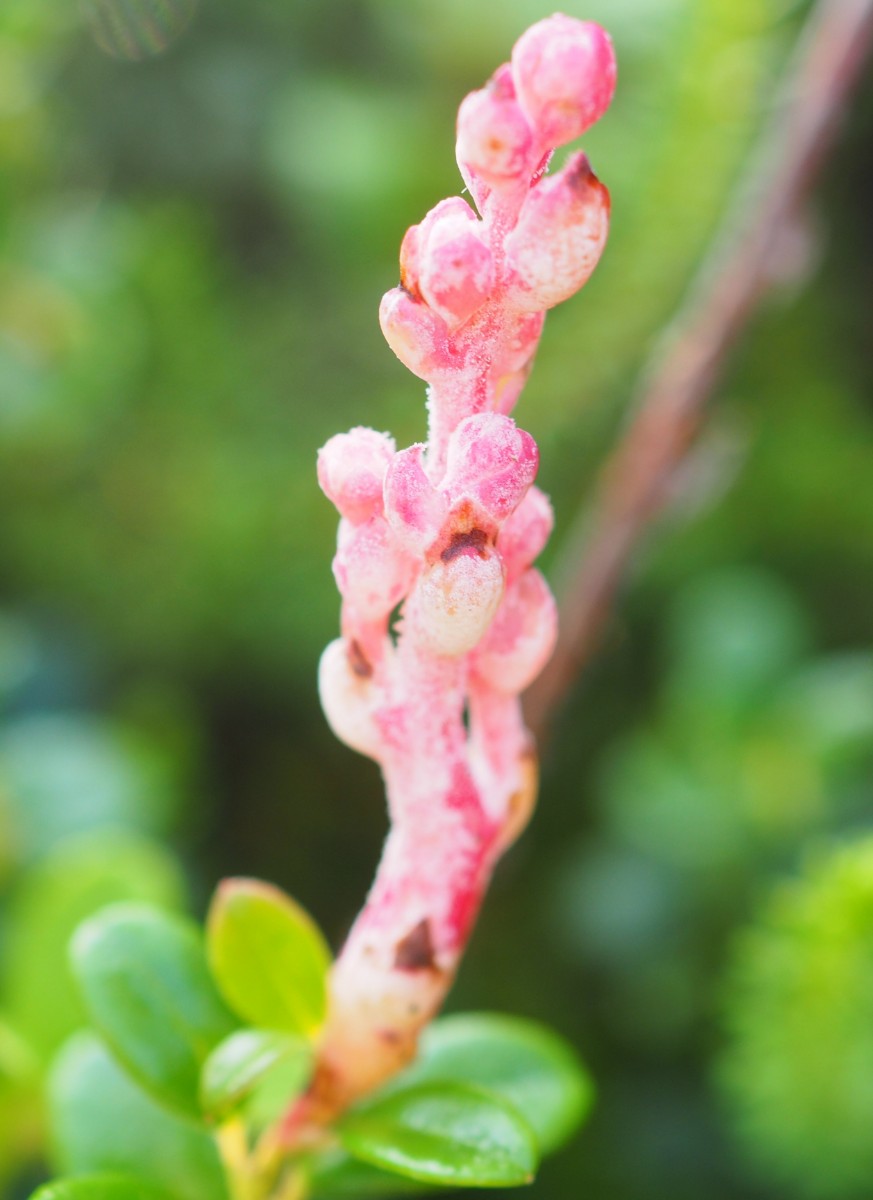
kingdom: Fungi
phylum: Basidiomycota
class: Exobasidiomycetes
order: Exobasidiales
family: Exobasidiaceae
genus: Exobasidium
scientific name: Exobasidium vaccinii
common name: tyttebærblad-bøllesvamp
